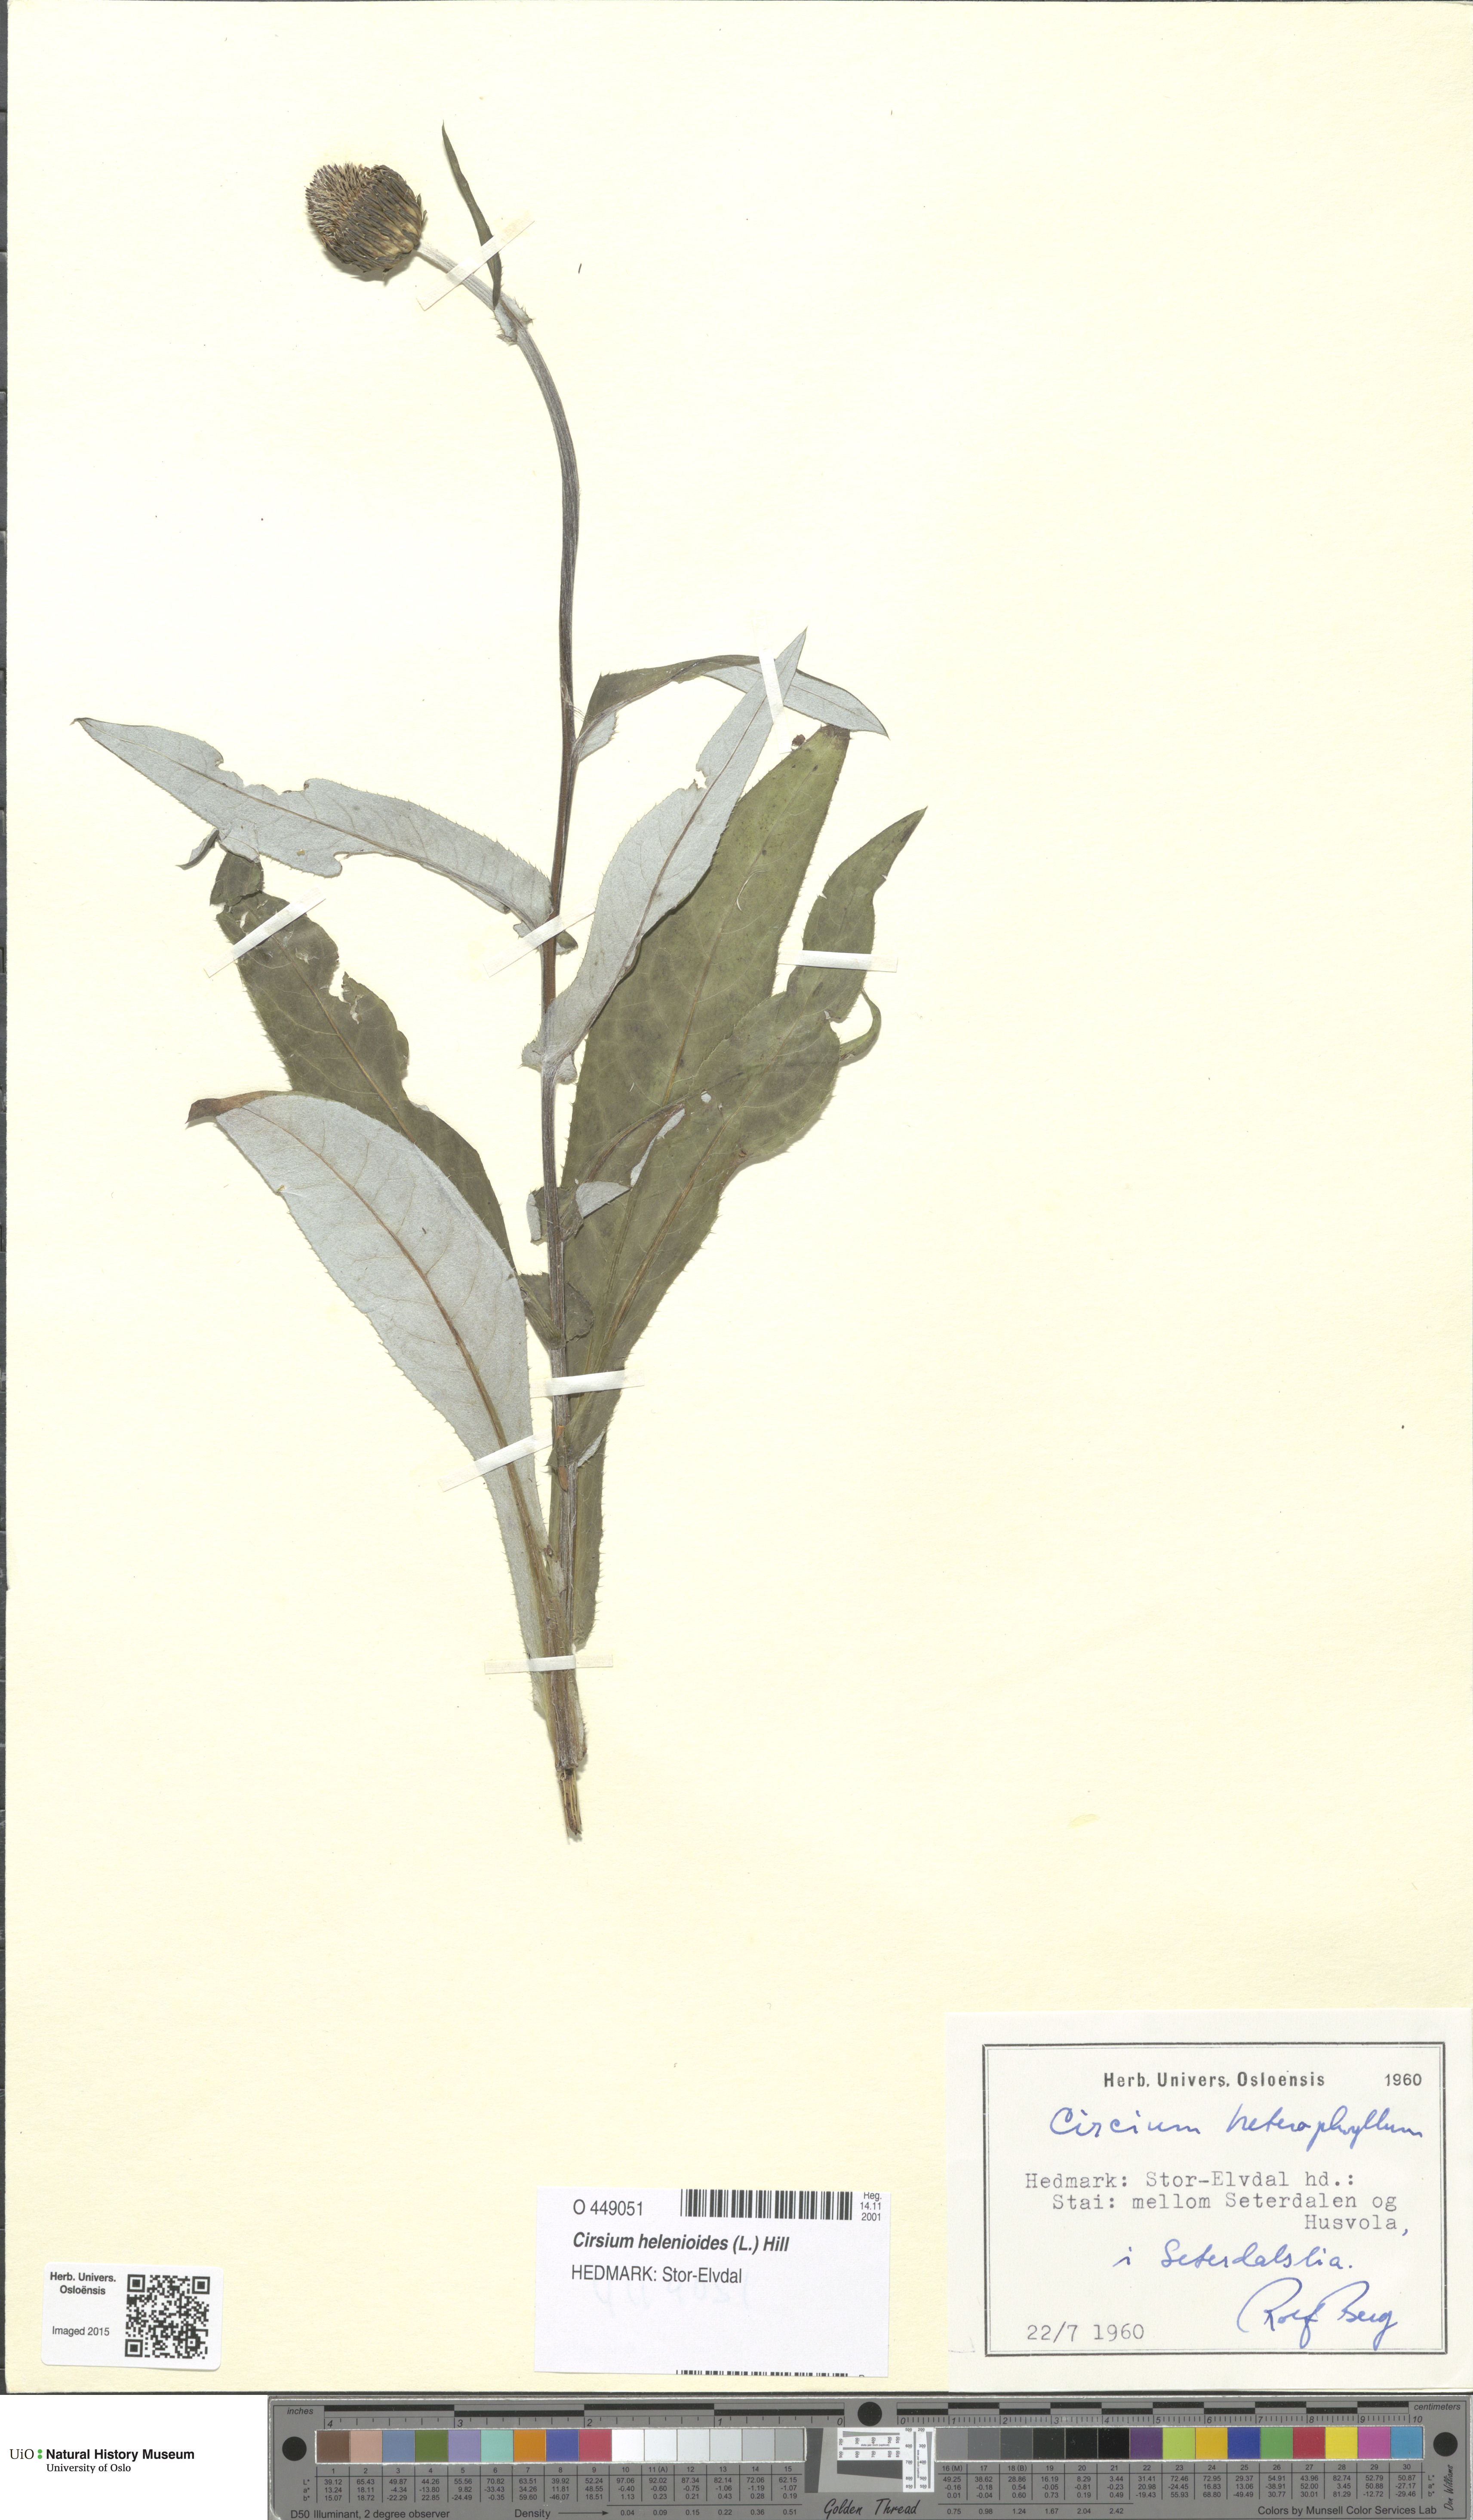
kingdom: Plantae
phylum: Tracheophyta
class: Magnoliopsida
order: Asterales
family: Asteraceae
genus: Cirsium
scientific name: Cirsium heterophyllum
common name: Melancholy thistle
